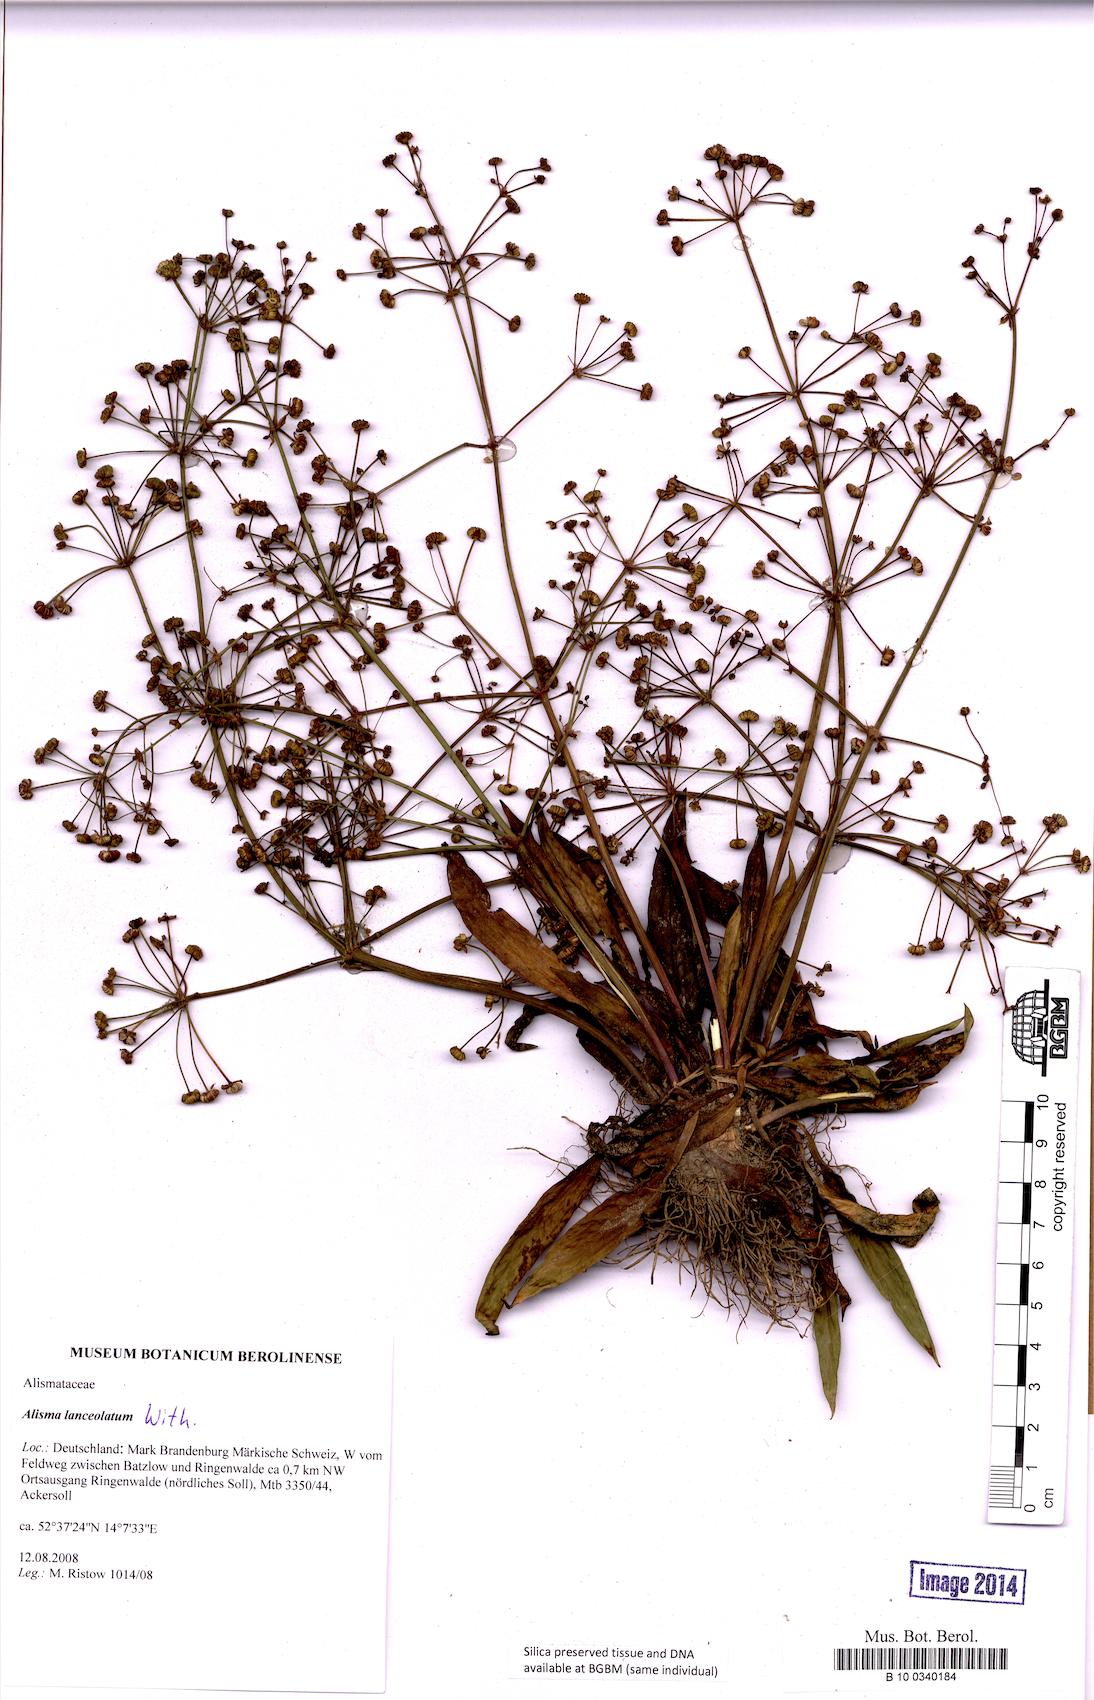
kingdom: Plantae
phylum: Tracheophyta
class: Liliopsida
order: Alismatales
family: Alismataceae
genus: Alisma
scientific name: Alisma lanceolatum
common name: Narrow-leaved water-plantain
